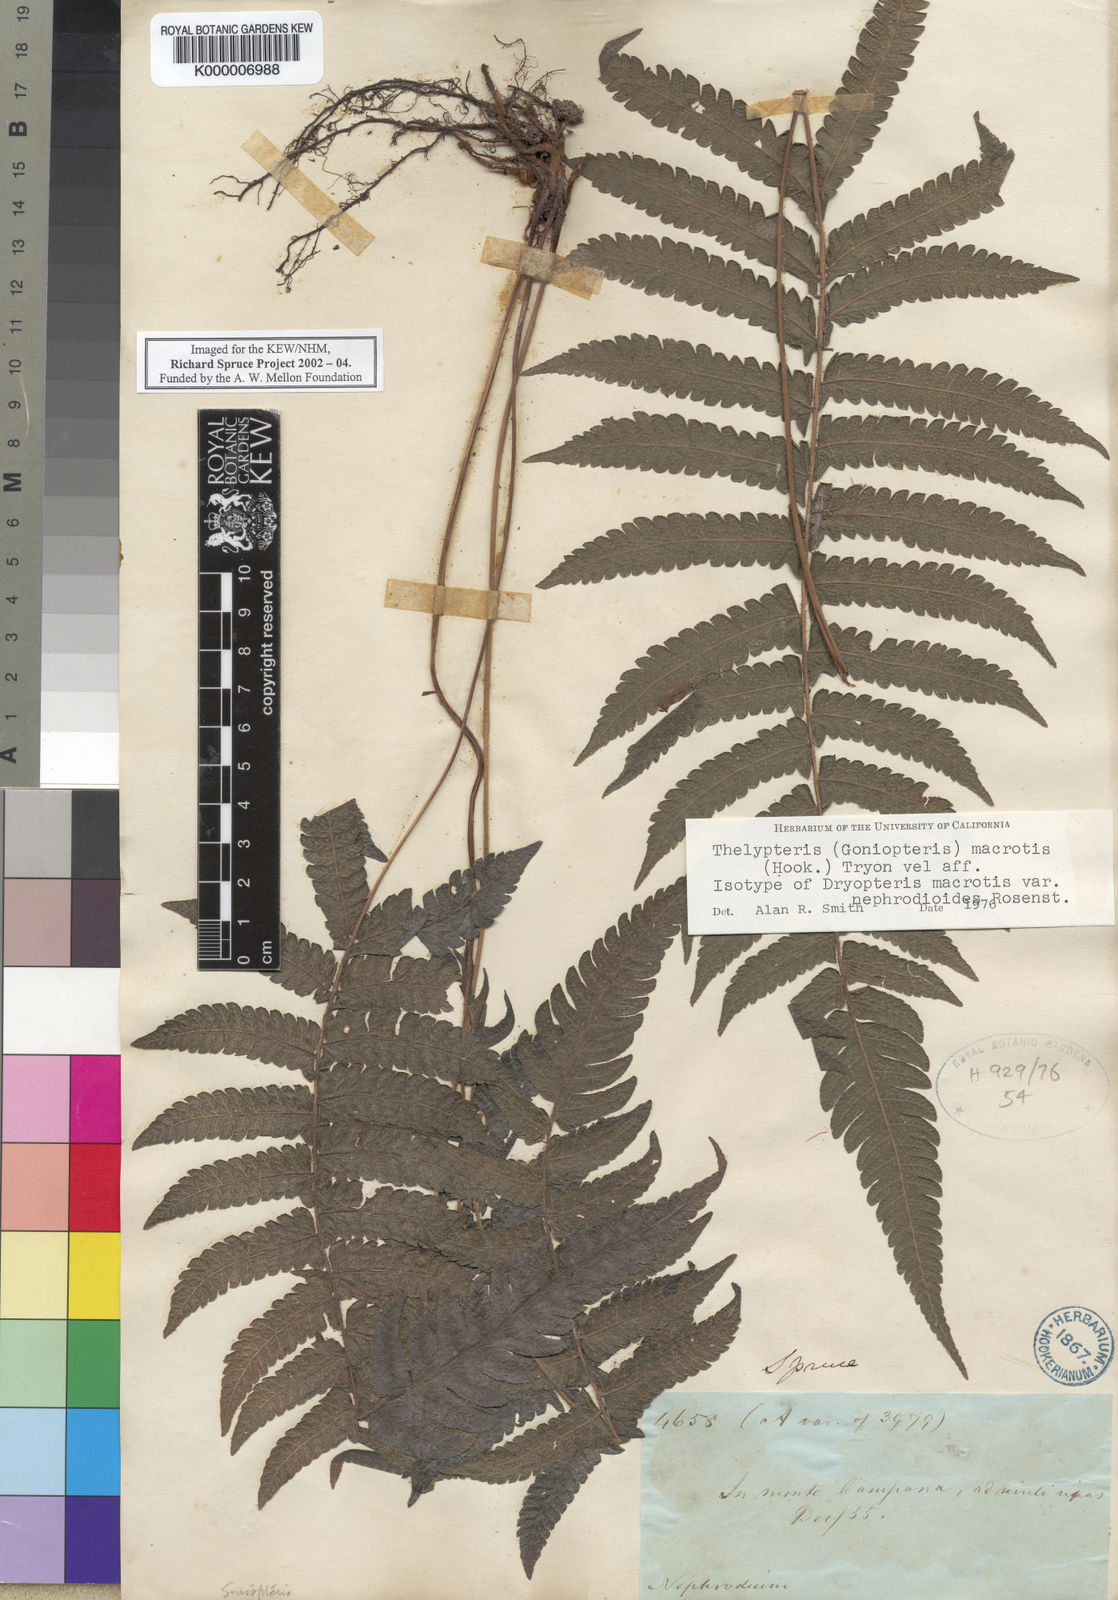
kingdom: Plantae
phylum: Tracheophyta
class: Polypodiopsida
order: Polypodiales
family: Thelypteridaceae
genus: Goniopteris
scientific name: Goniopteris macrotis
